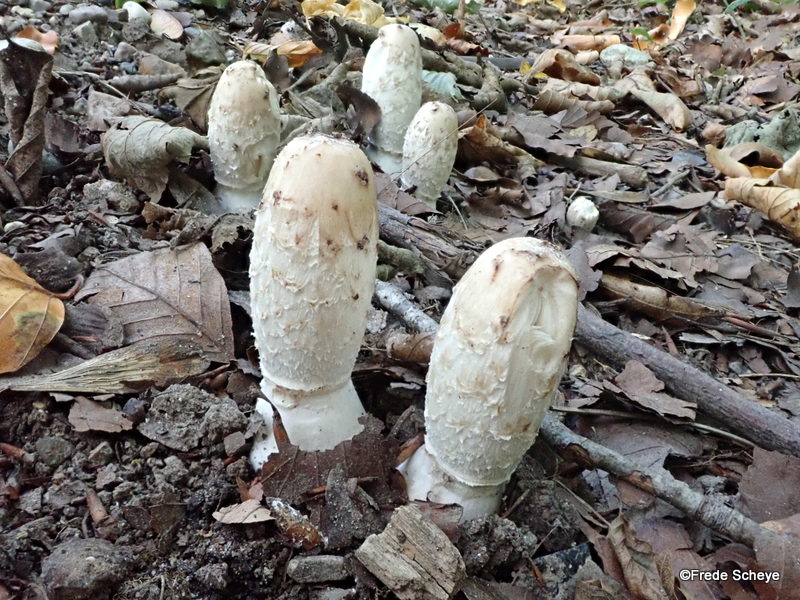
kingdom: Fungi
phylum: Basidiomycota
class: Agaricomycetes
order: Agaricales
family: Agaricaceae
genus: Coprinus
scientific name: Coprinus comatus
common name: stor parykhat
